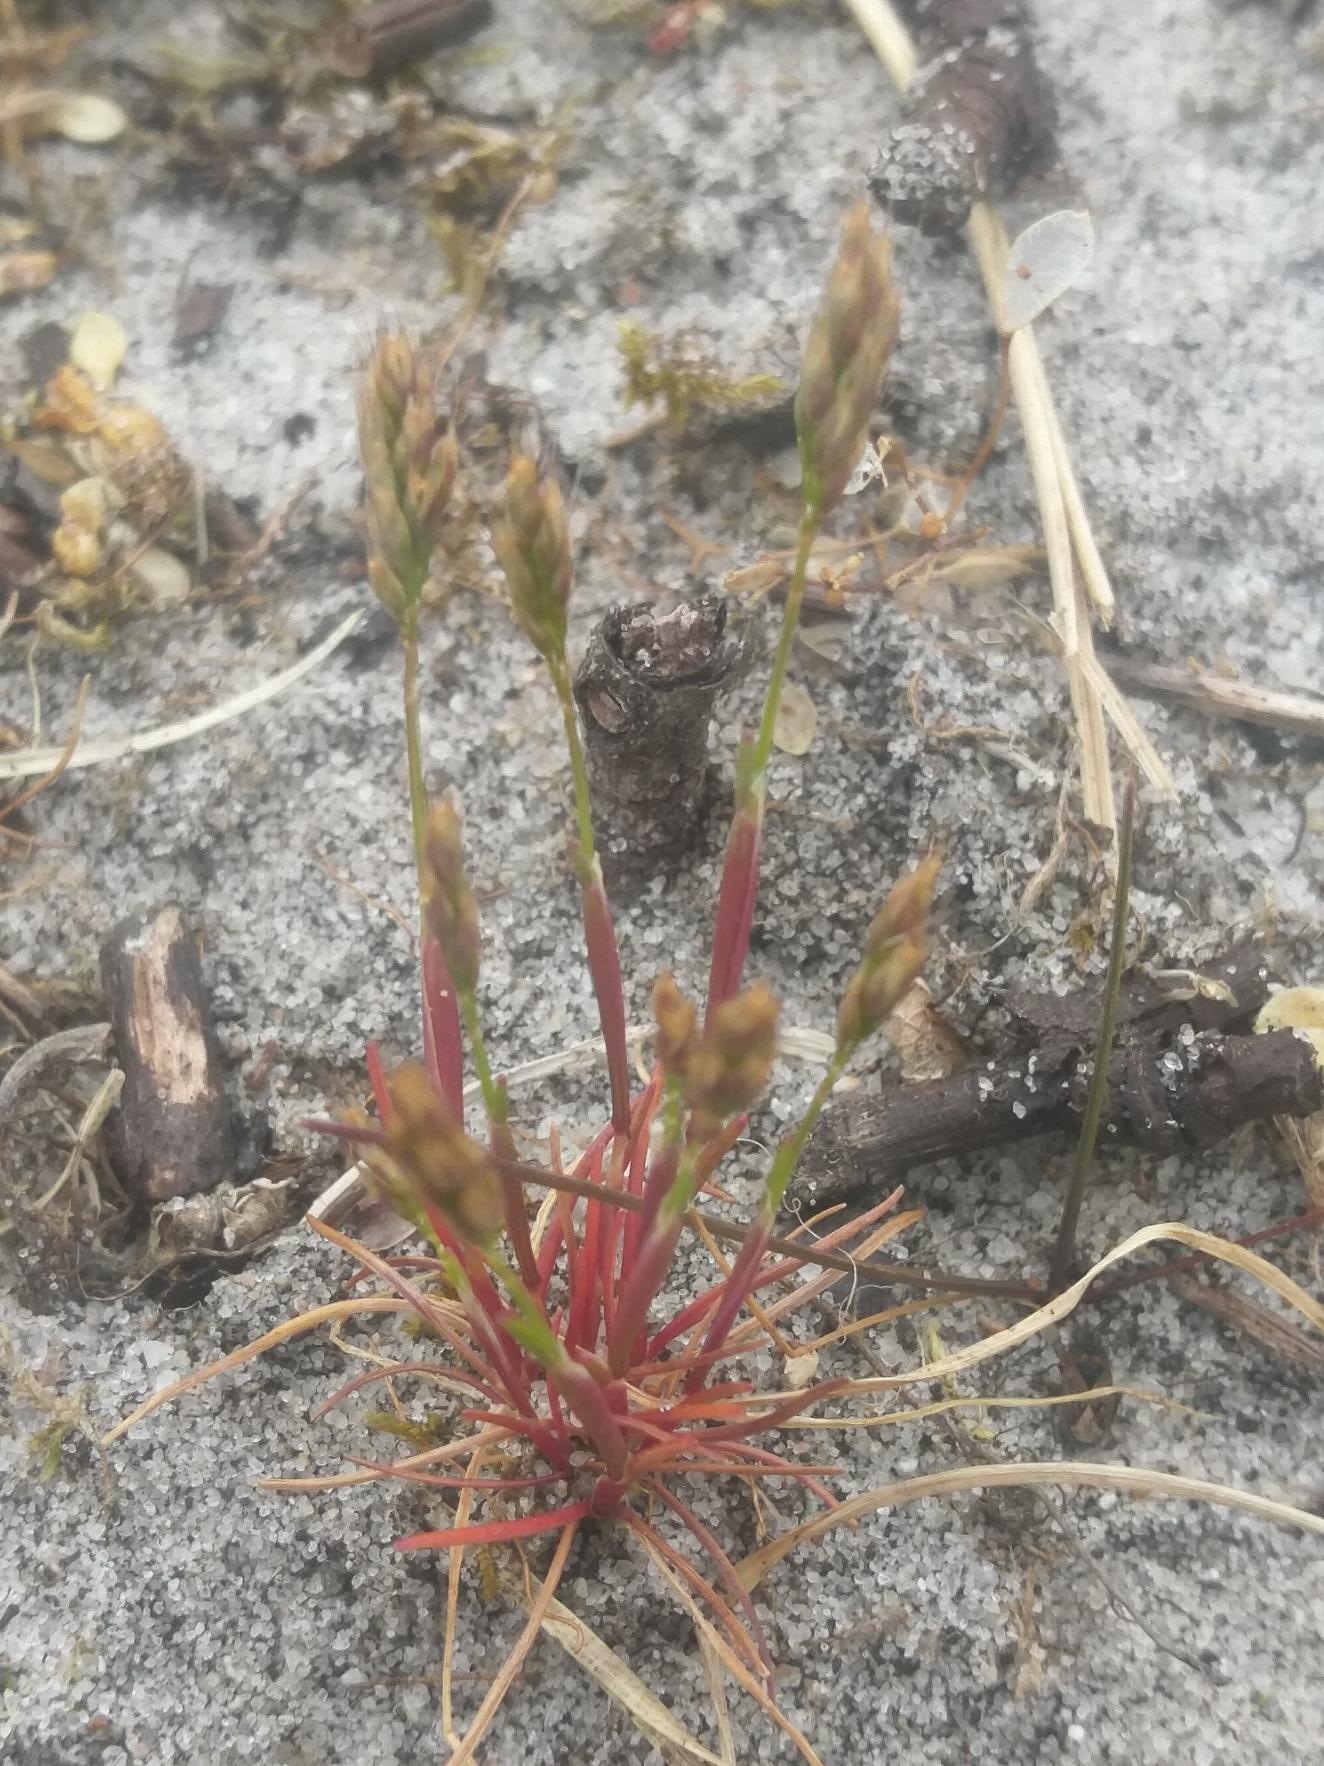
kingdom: Plantae
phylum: Tracheophyta
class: Liliopsida
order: Poales
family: Poaceae
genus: Aira
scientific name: Aira praecox
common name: Tidlig dværgbunke
